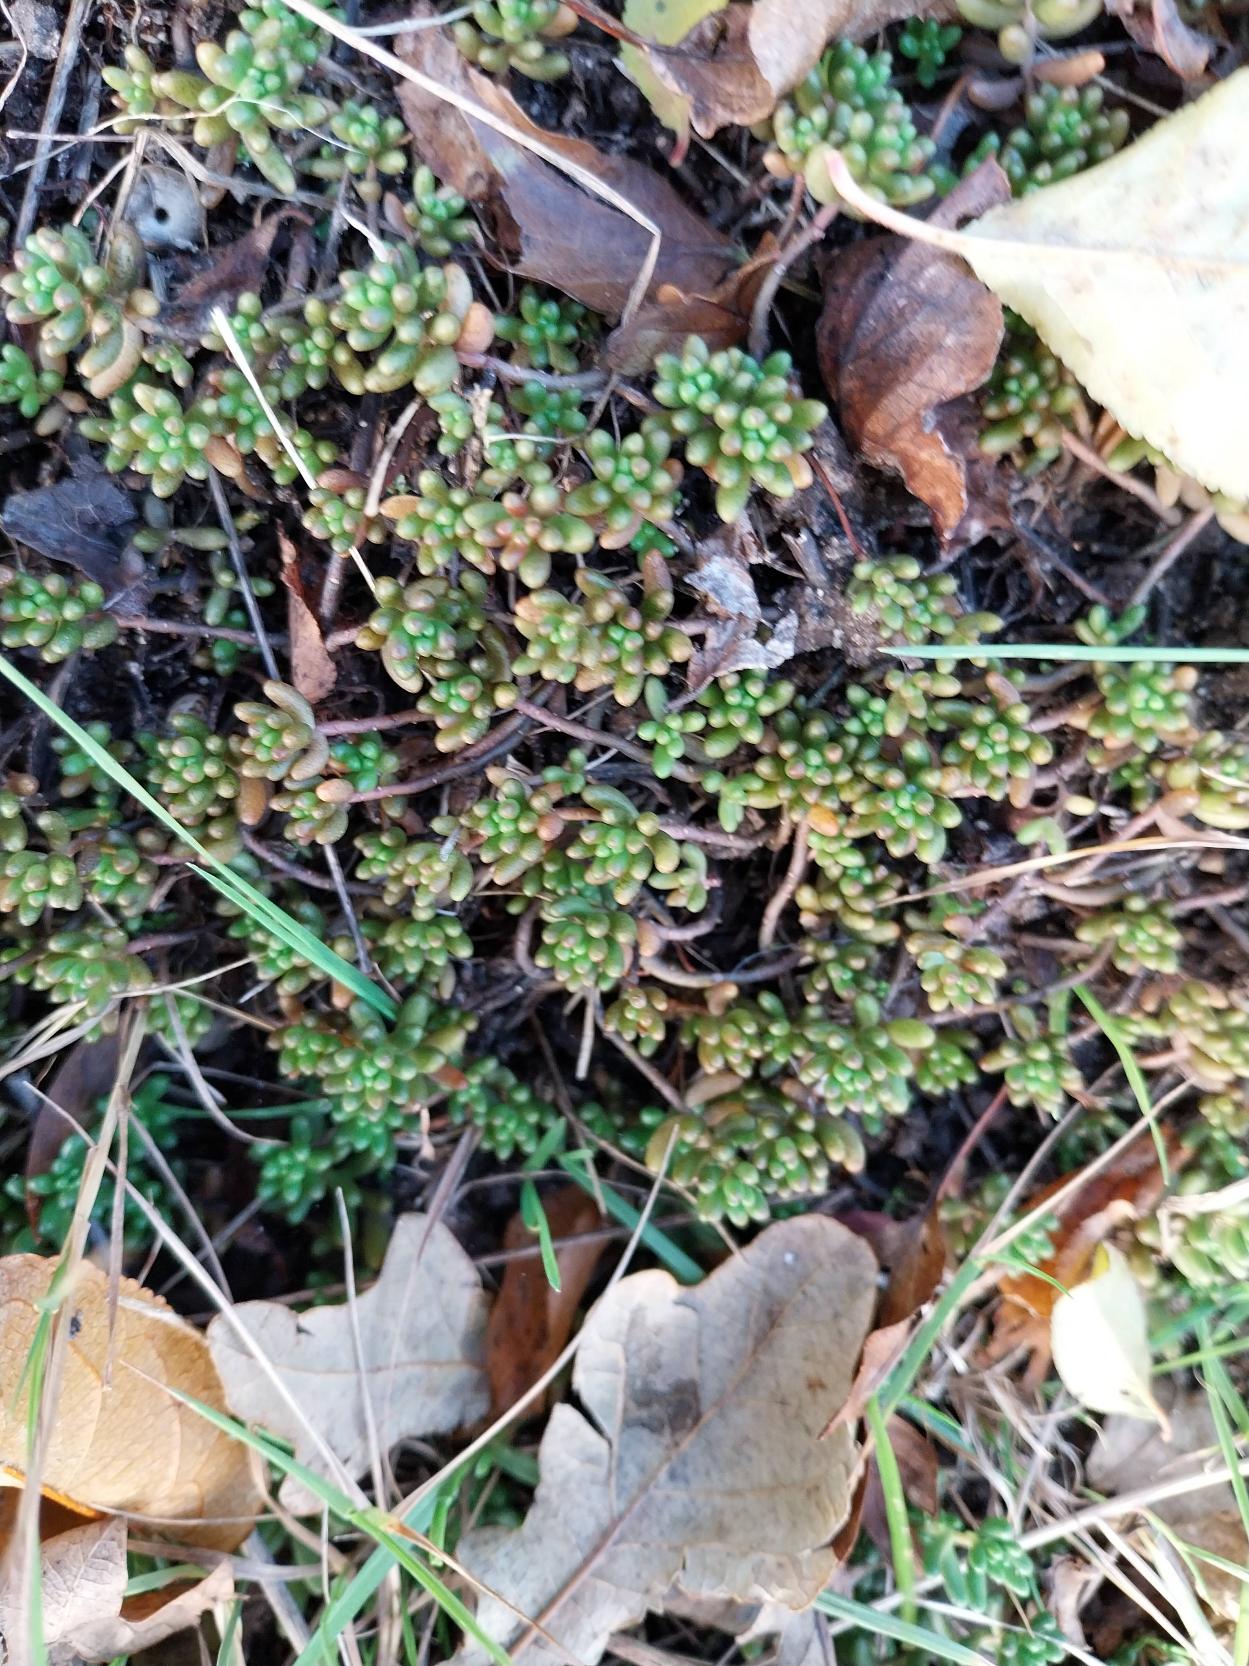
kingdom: Plantae
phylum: Tracheophyta
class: Magnoliopsida
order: Saxifragales
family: Crassulaceae
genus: Sedum
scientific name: Sedum album
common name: Hvid stenurt
